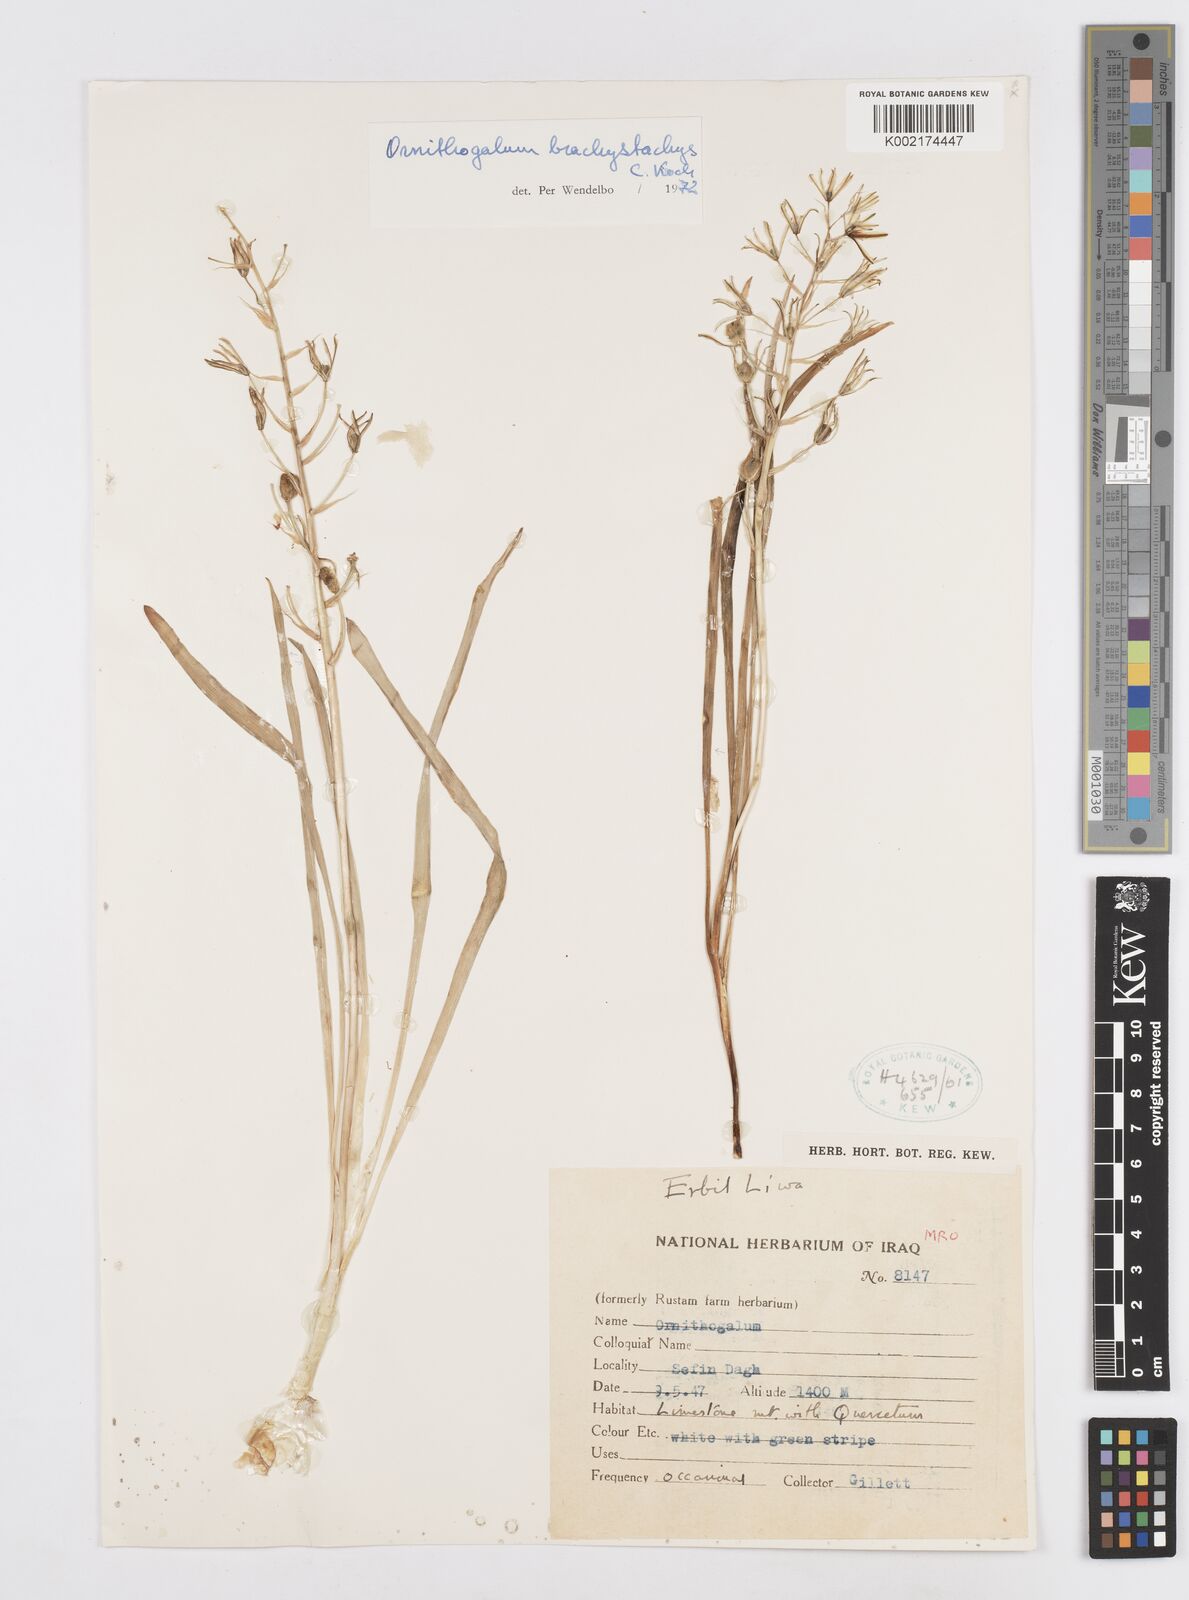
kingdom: Plantae
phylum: Tracheophyta
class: Liliopsida
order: Asparagales
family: Asparagaceae
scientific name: Asparagaceae
